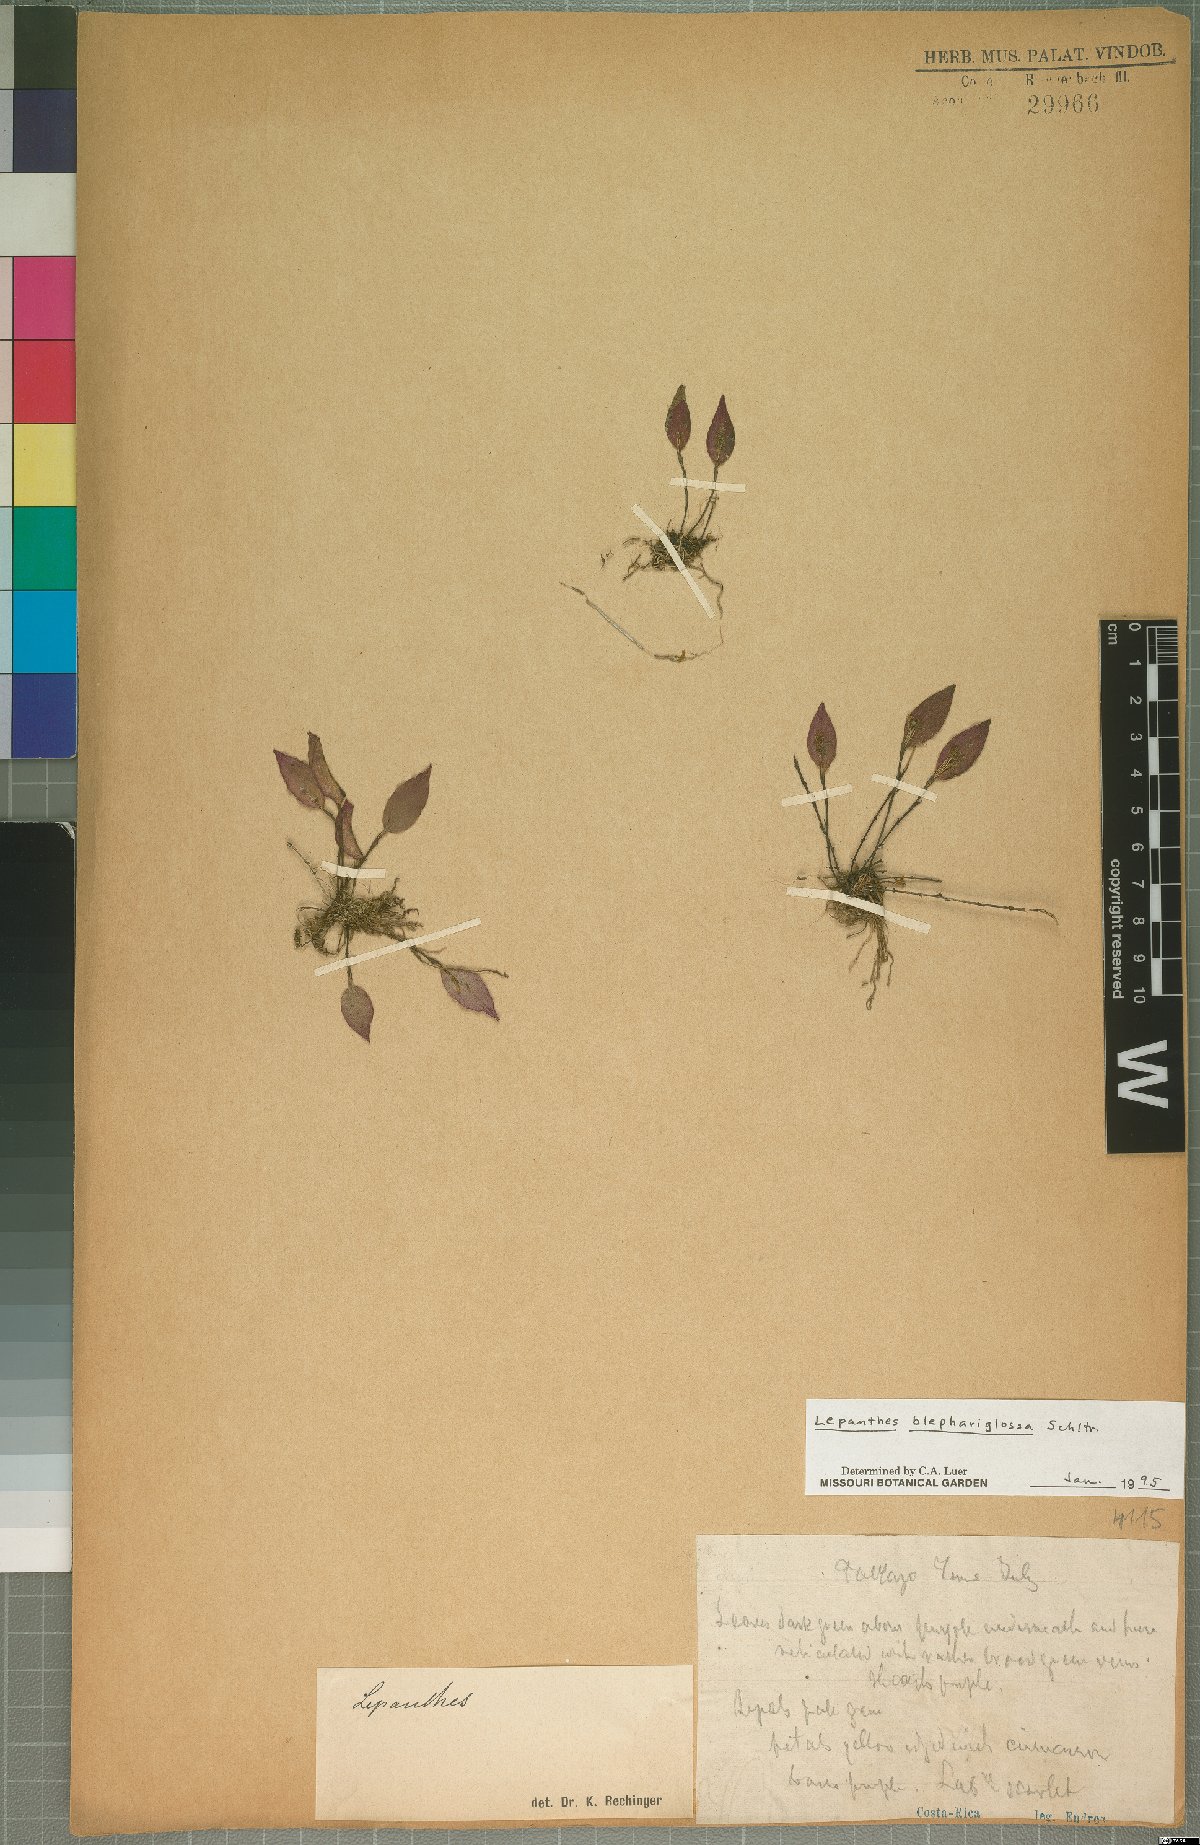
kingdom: Plantae
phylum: Tracheophyta
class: Liliopsida
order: Asparagales
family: Orchidaceae
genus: Lepanthes
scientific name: Lepanthes blephariglossa
